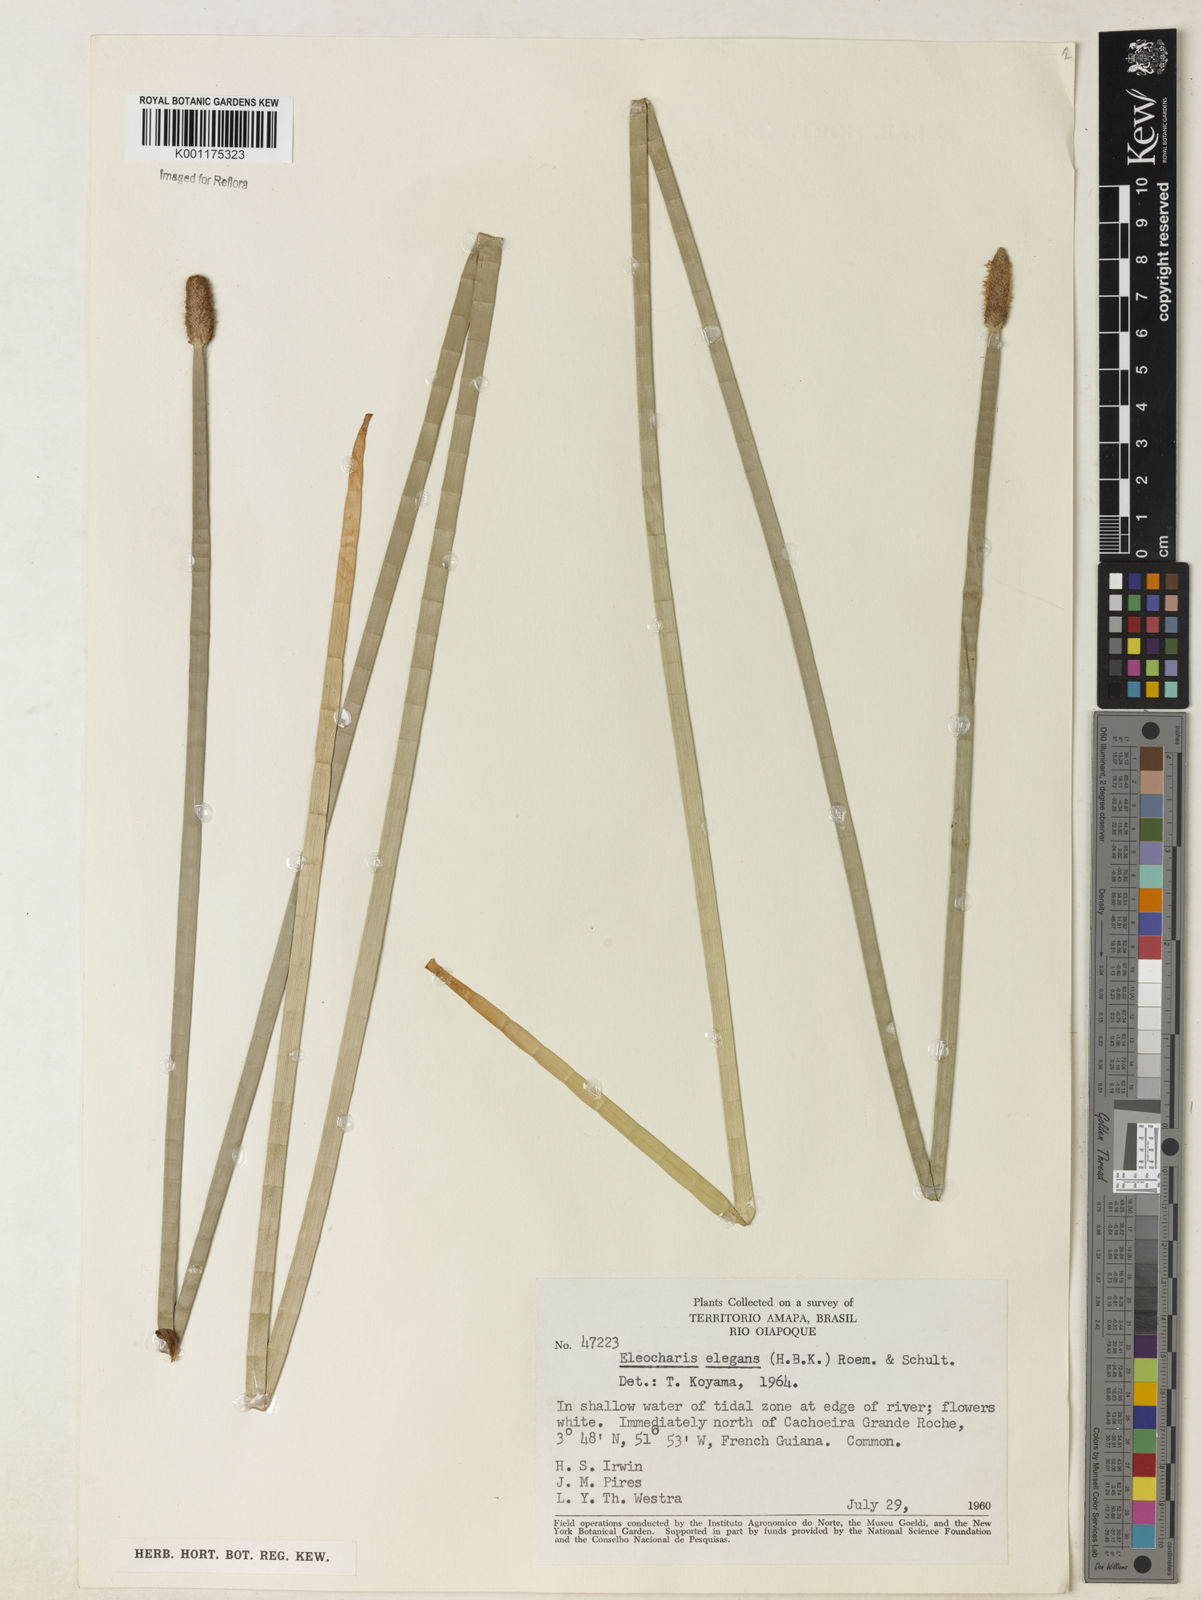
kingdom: Plantae
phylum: Tracheophyta
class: Liliopsida
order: Poales
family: Cyperaceae
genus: Eleocharis
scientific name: Eleocharis elegans
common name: Elegant spike-rush
